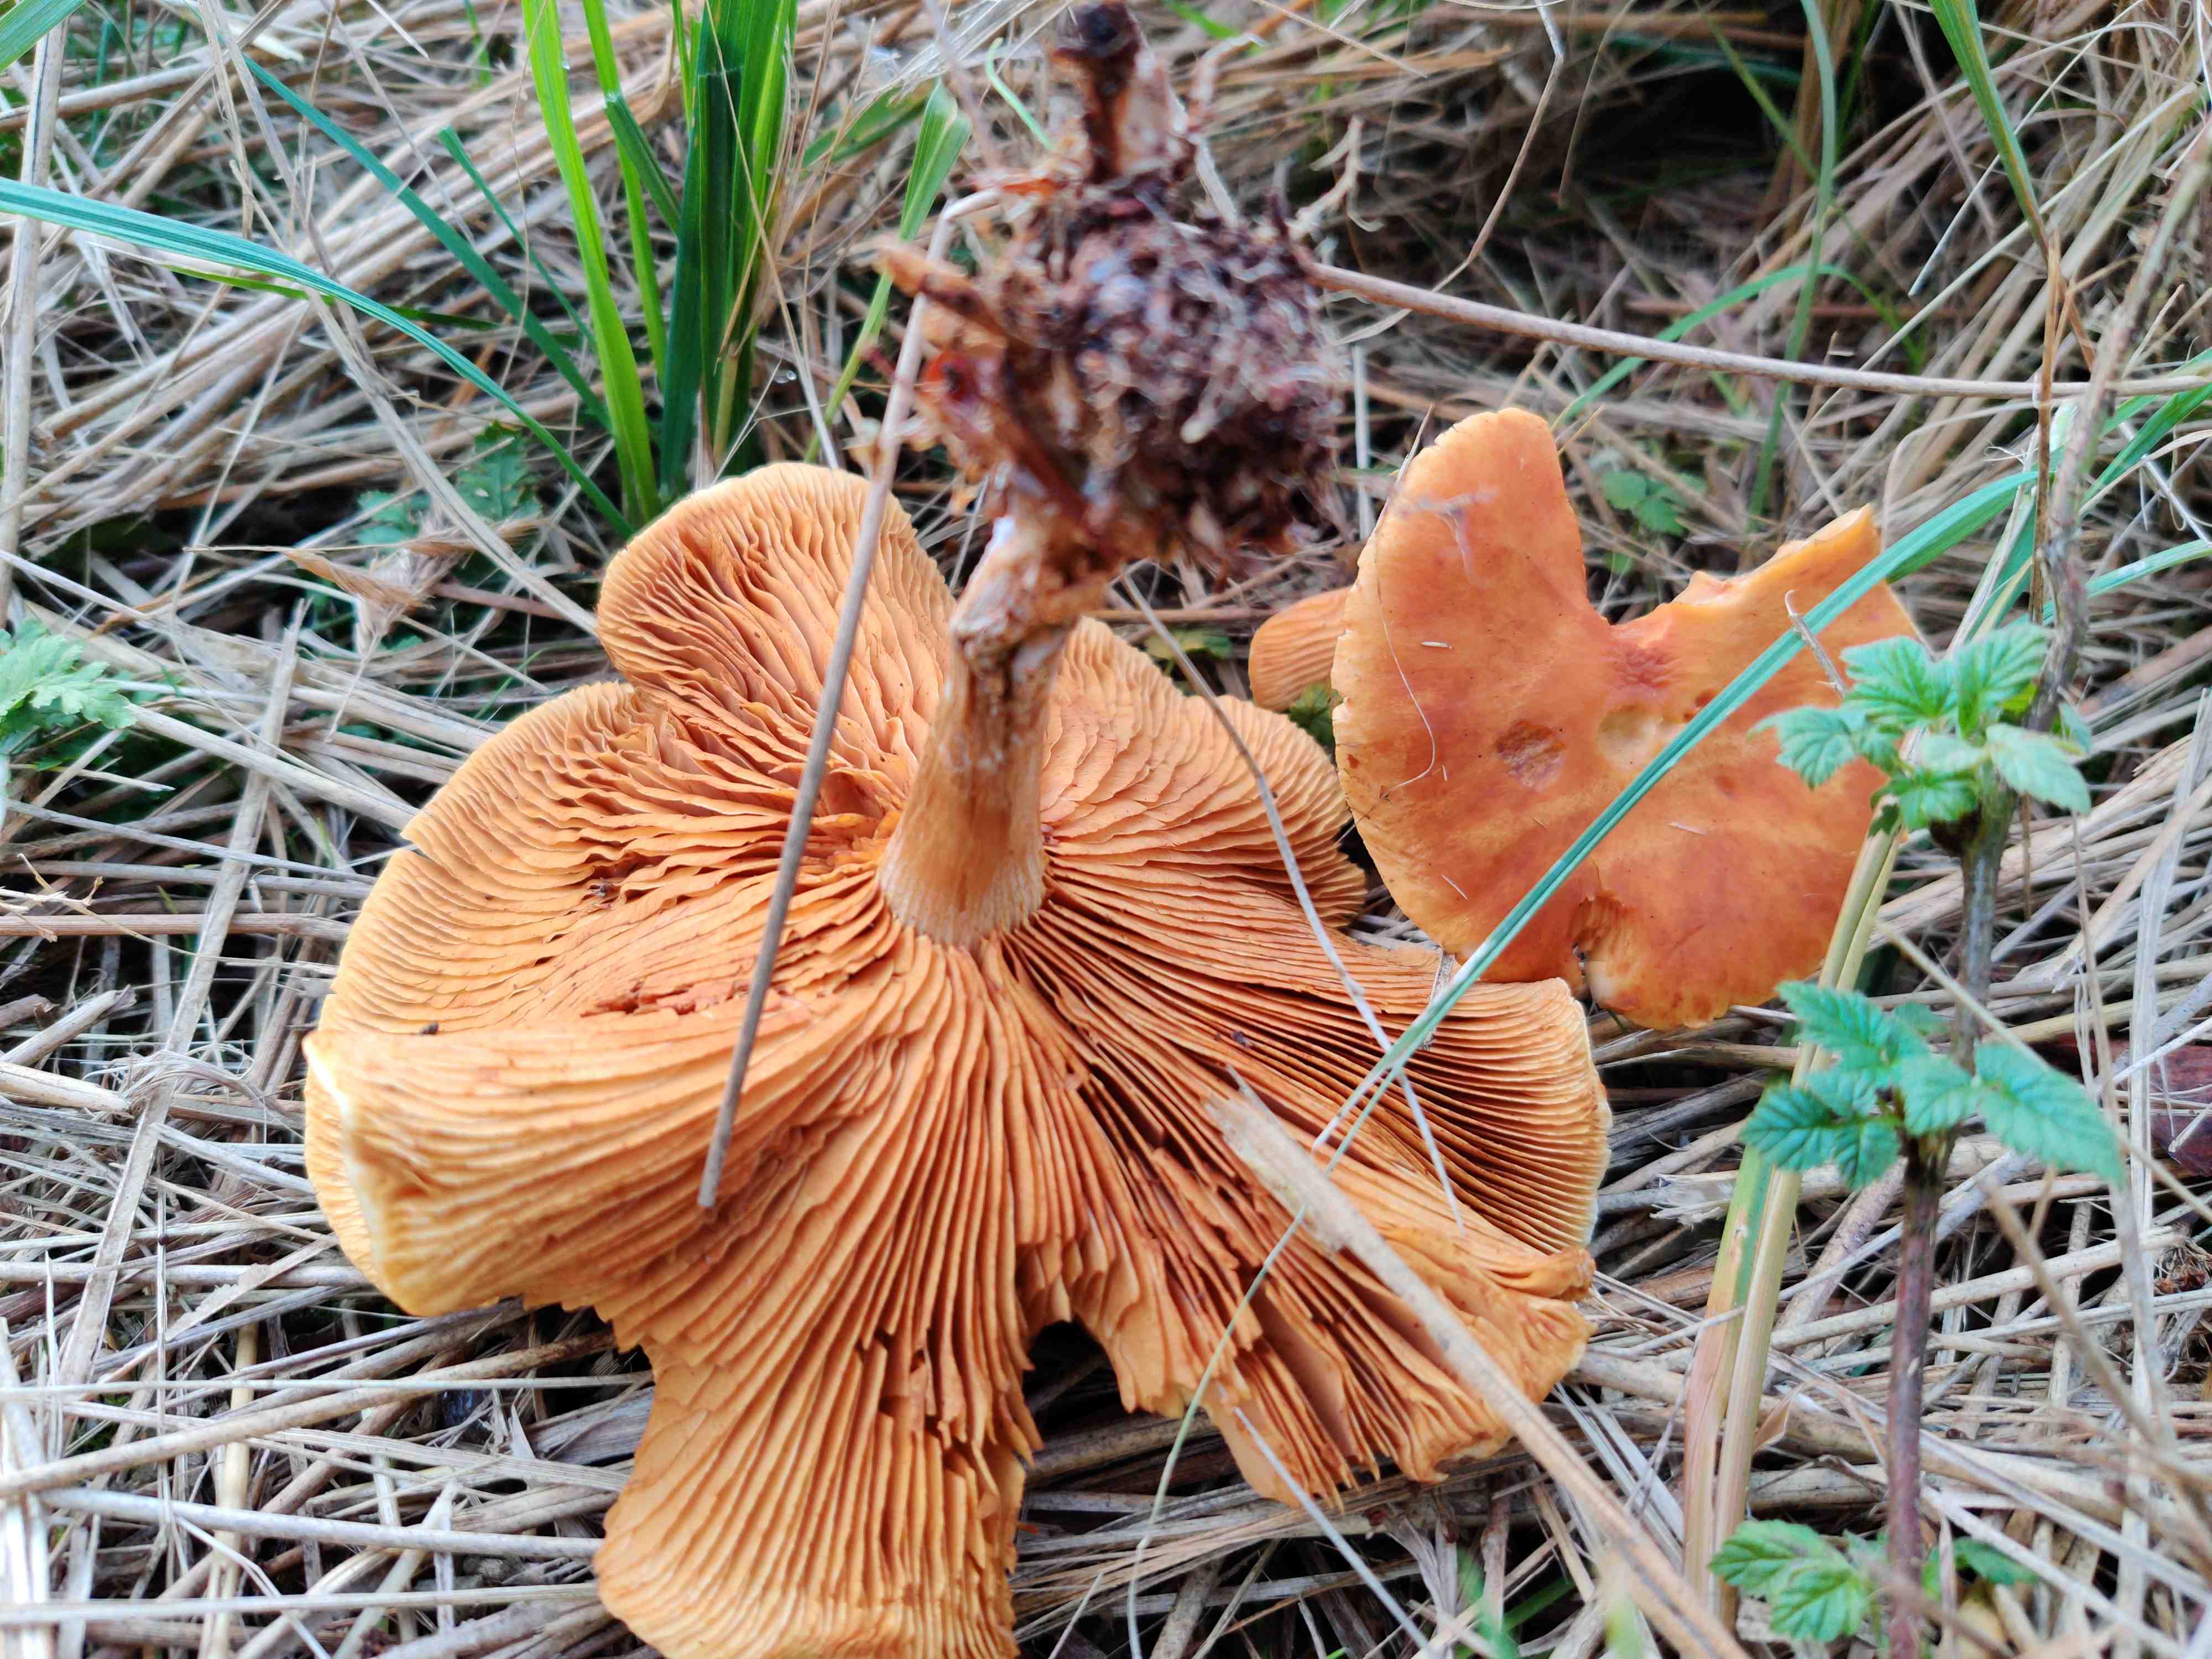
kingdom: Fungi
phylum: Basidiomycota
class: Agaricomycetes
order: Agaricales
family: Hymenogastraceae
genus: Gymnopilus
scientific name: Gymnopilus penetrans
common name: plettet flammehat
